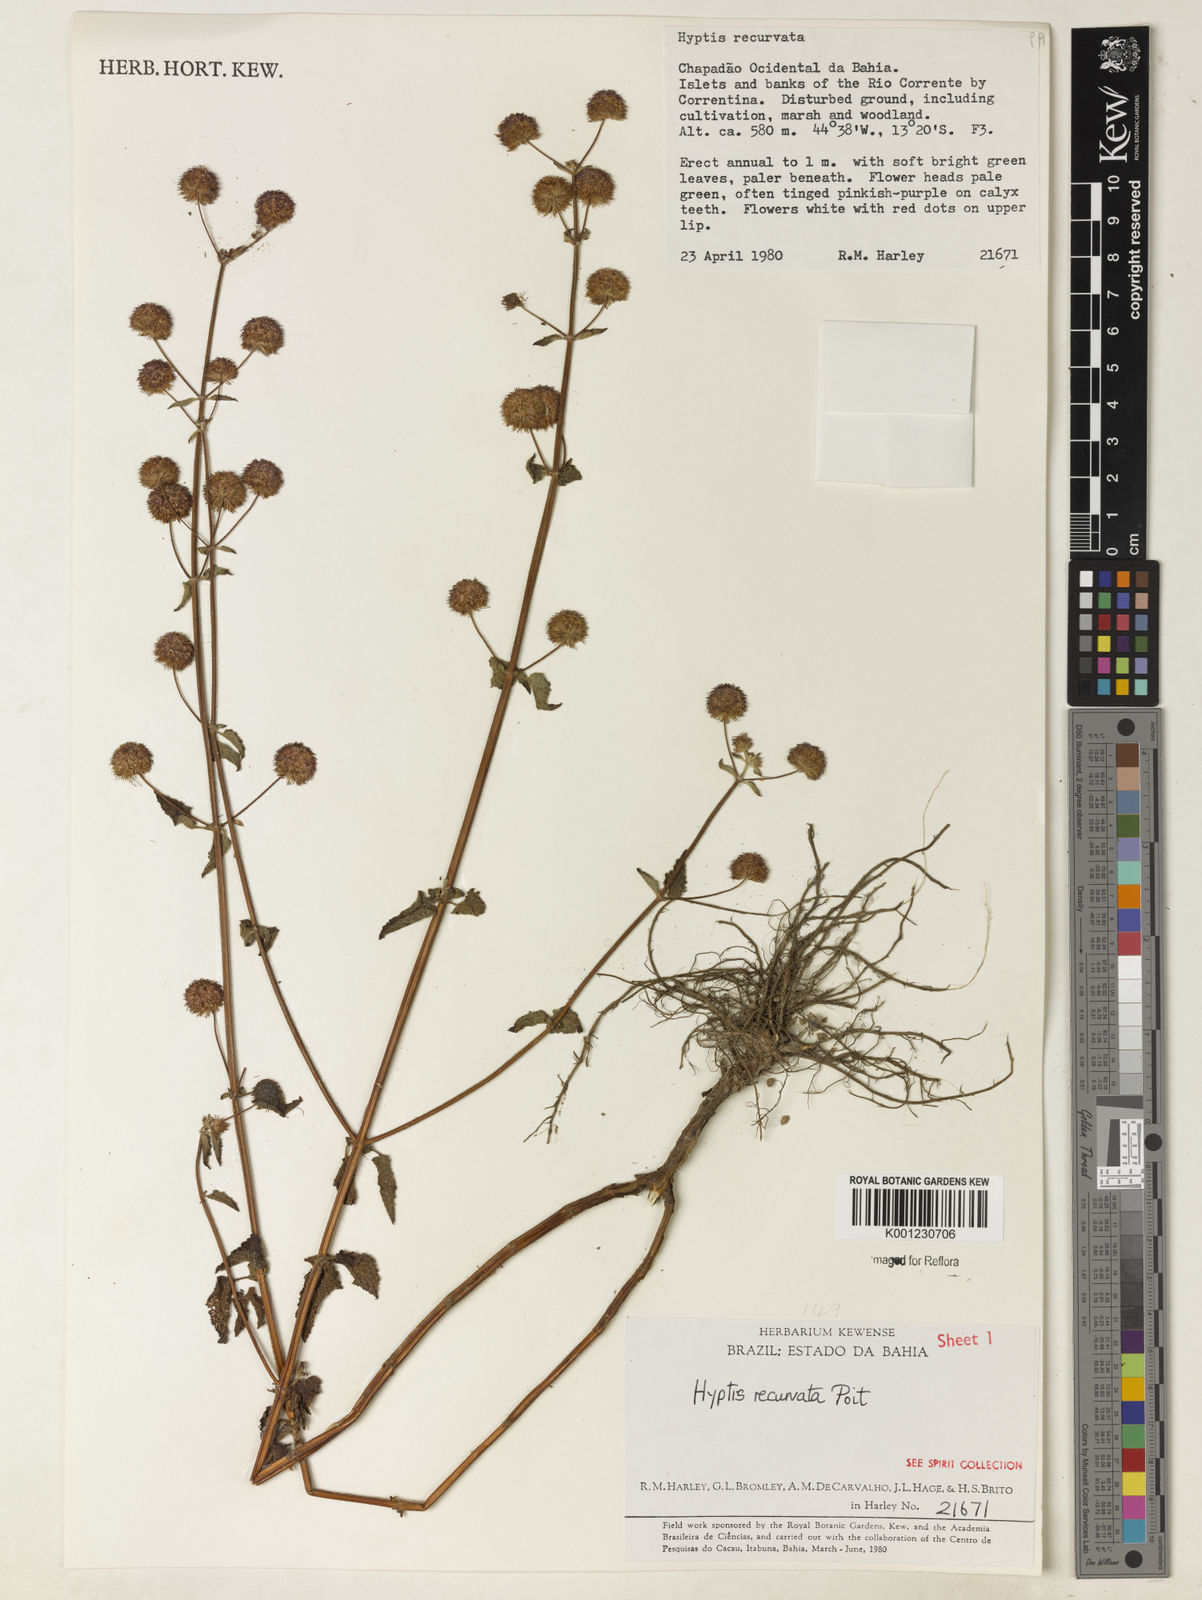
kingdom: Plantae
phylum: Tracheophyta
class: Liliopsida
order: Poales
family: Cyperaceae
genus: Rhynchospora
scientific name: Rhynchospora tenuis
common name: Quill beaksedge
